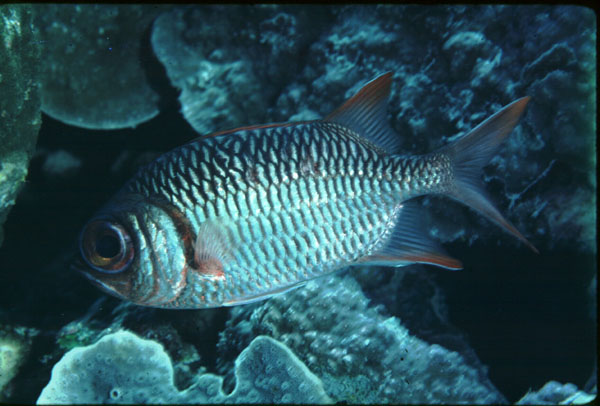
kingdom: Animalia
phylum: Chordata
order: Beryciformes
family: Holocentridae
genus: Myripristis
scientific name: Myripristis violacea
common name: Lattice soldierfish
